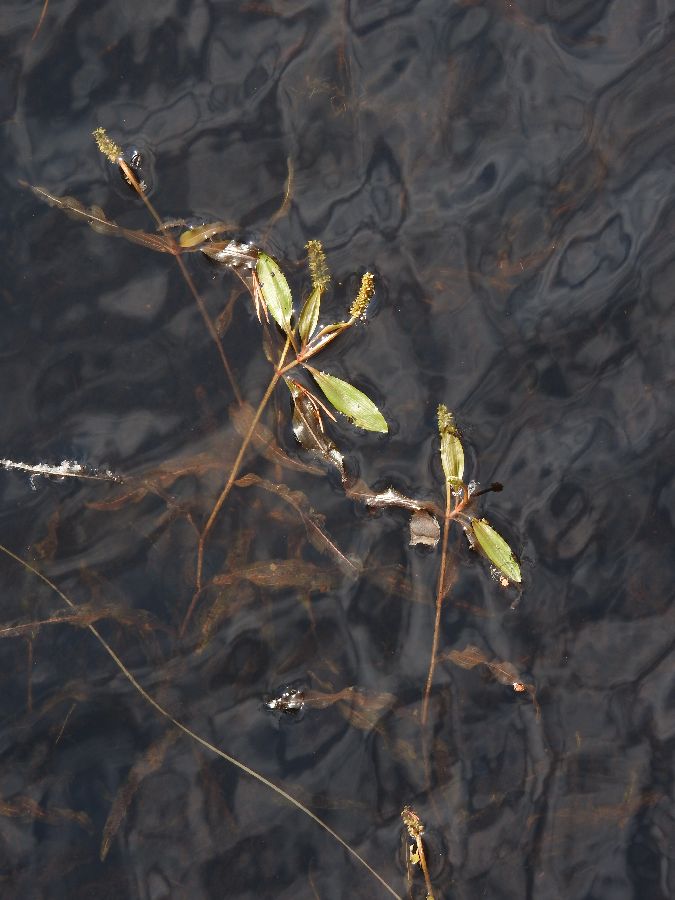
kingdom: Plantae
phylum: Tracheophyta
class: Liliopsida
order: Alismatales
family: Potamogetonaceae
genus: Potamogeton
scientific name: Potamogeton alpinus
